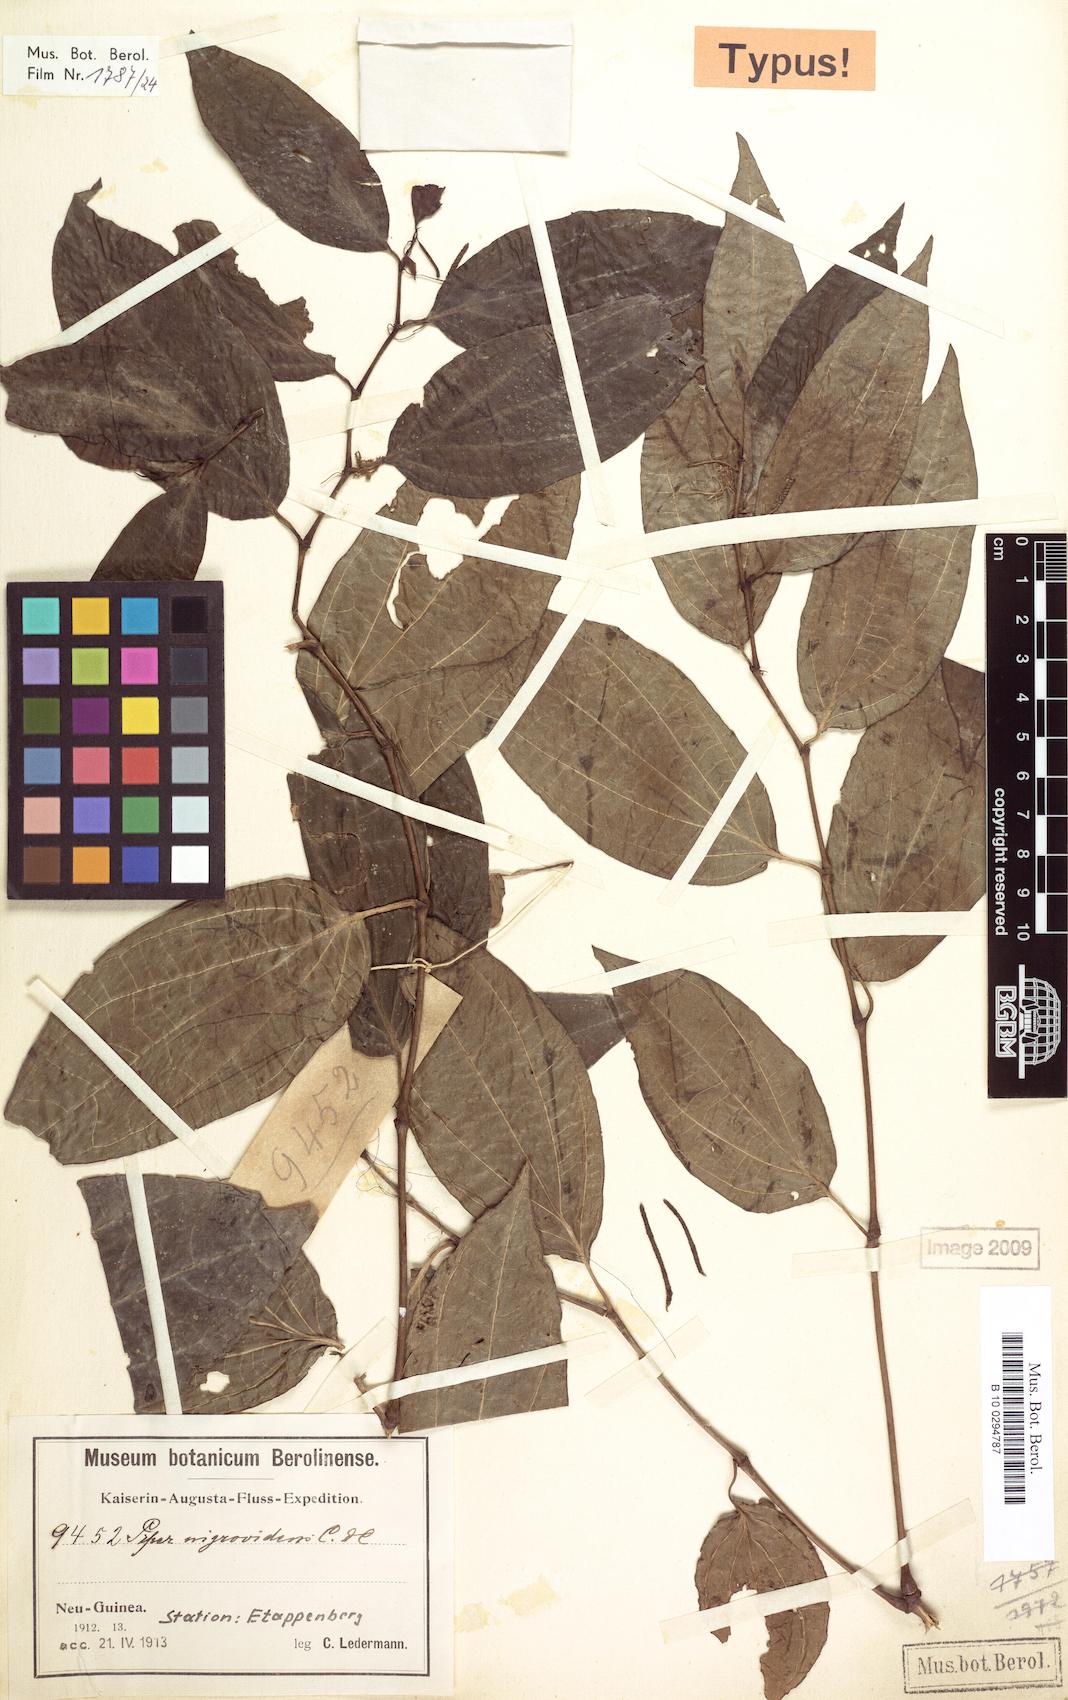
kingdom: Plantae
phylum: Tracheophyta
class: Magnoliopsida
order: Piperales
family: Piperaceae
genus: Piper
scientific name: Piper nigrovirens
